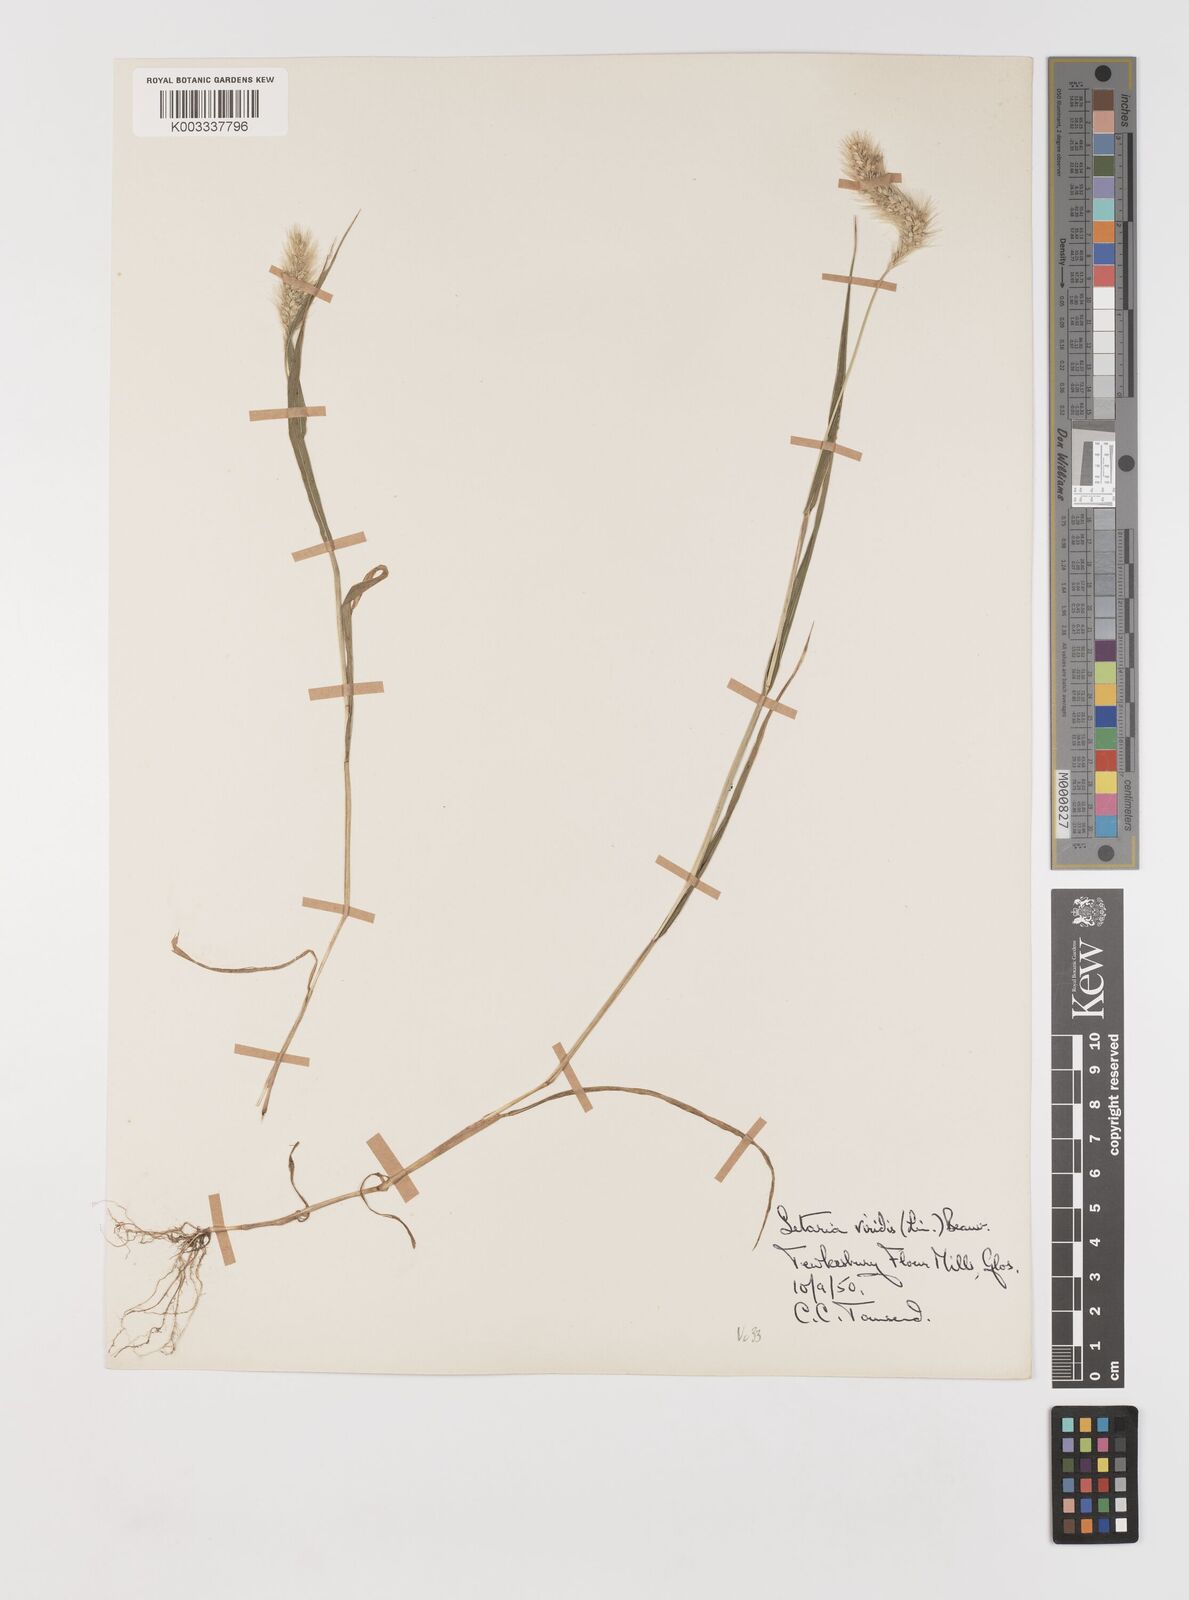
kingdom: Plantae
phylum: Tracheophyta
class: Liliopsida
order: Poales
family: Poaceae
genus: Setaria
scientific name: Setaria viridis
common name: Green bristlegrass
